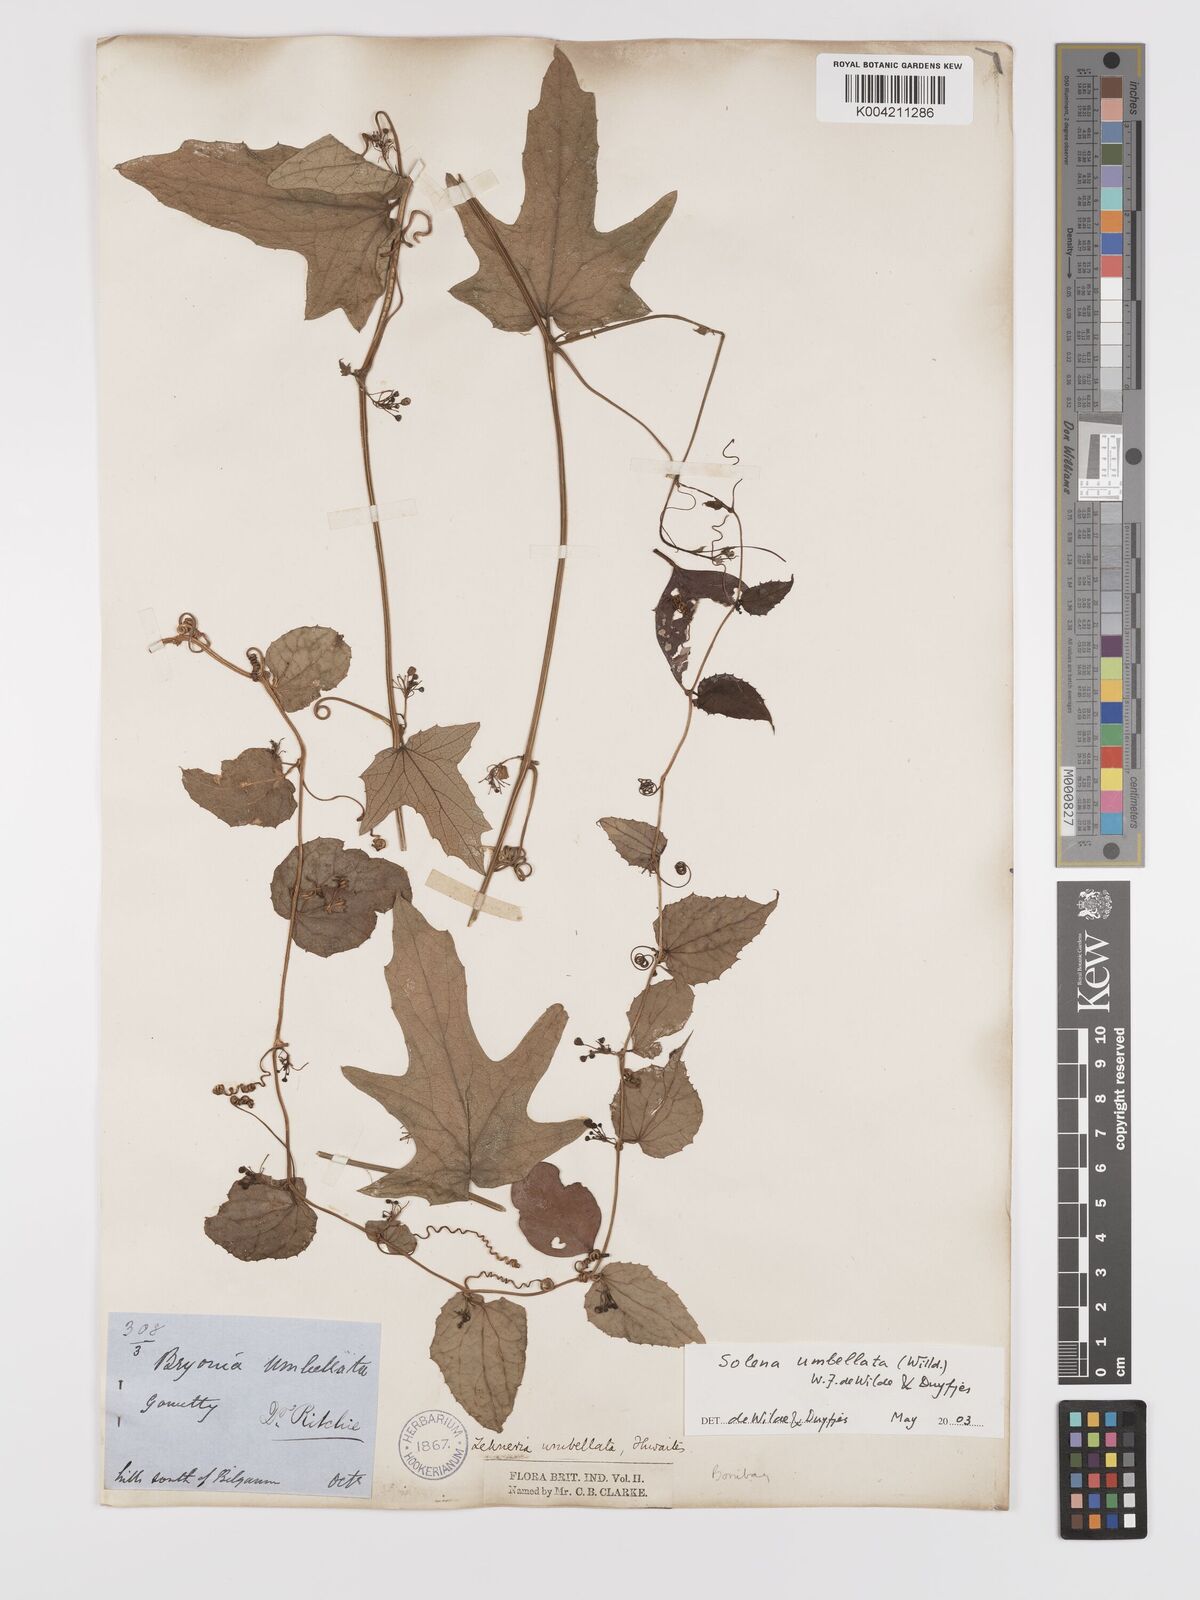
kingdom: Plantae
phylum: Tracheophyta
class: Magnoliopsida
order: Cucurbitales
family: Cucurbitaceae
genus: Solena
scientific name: Solena amplexicaulis
